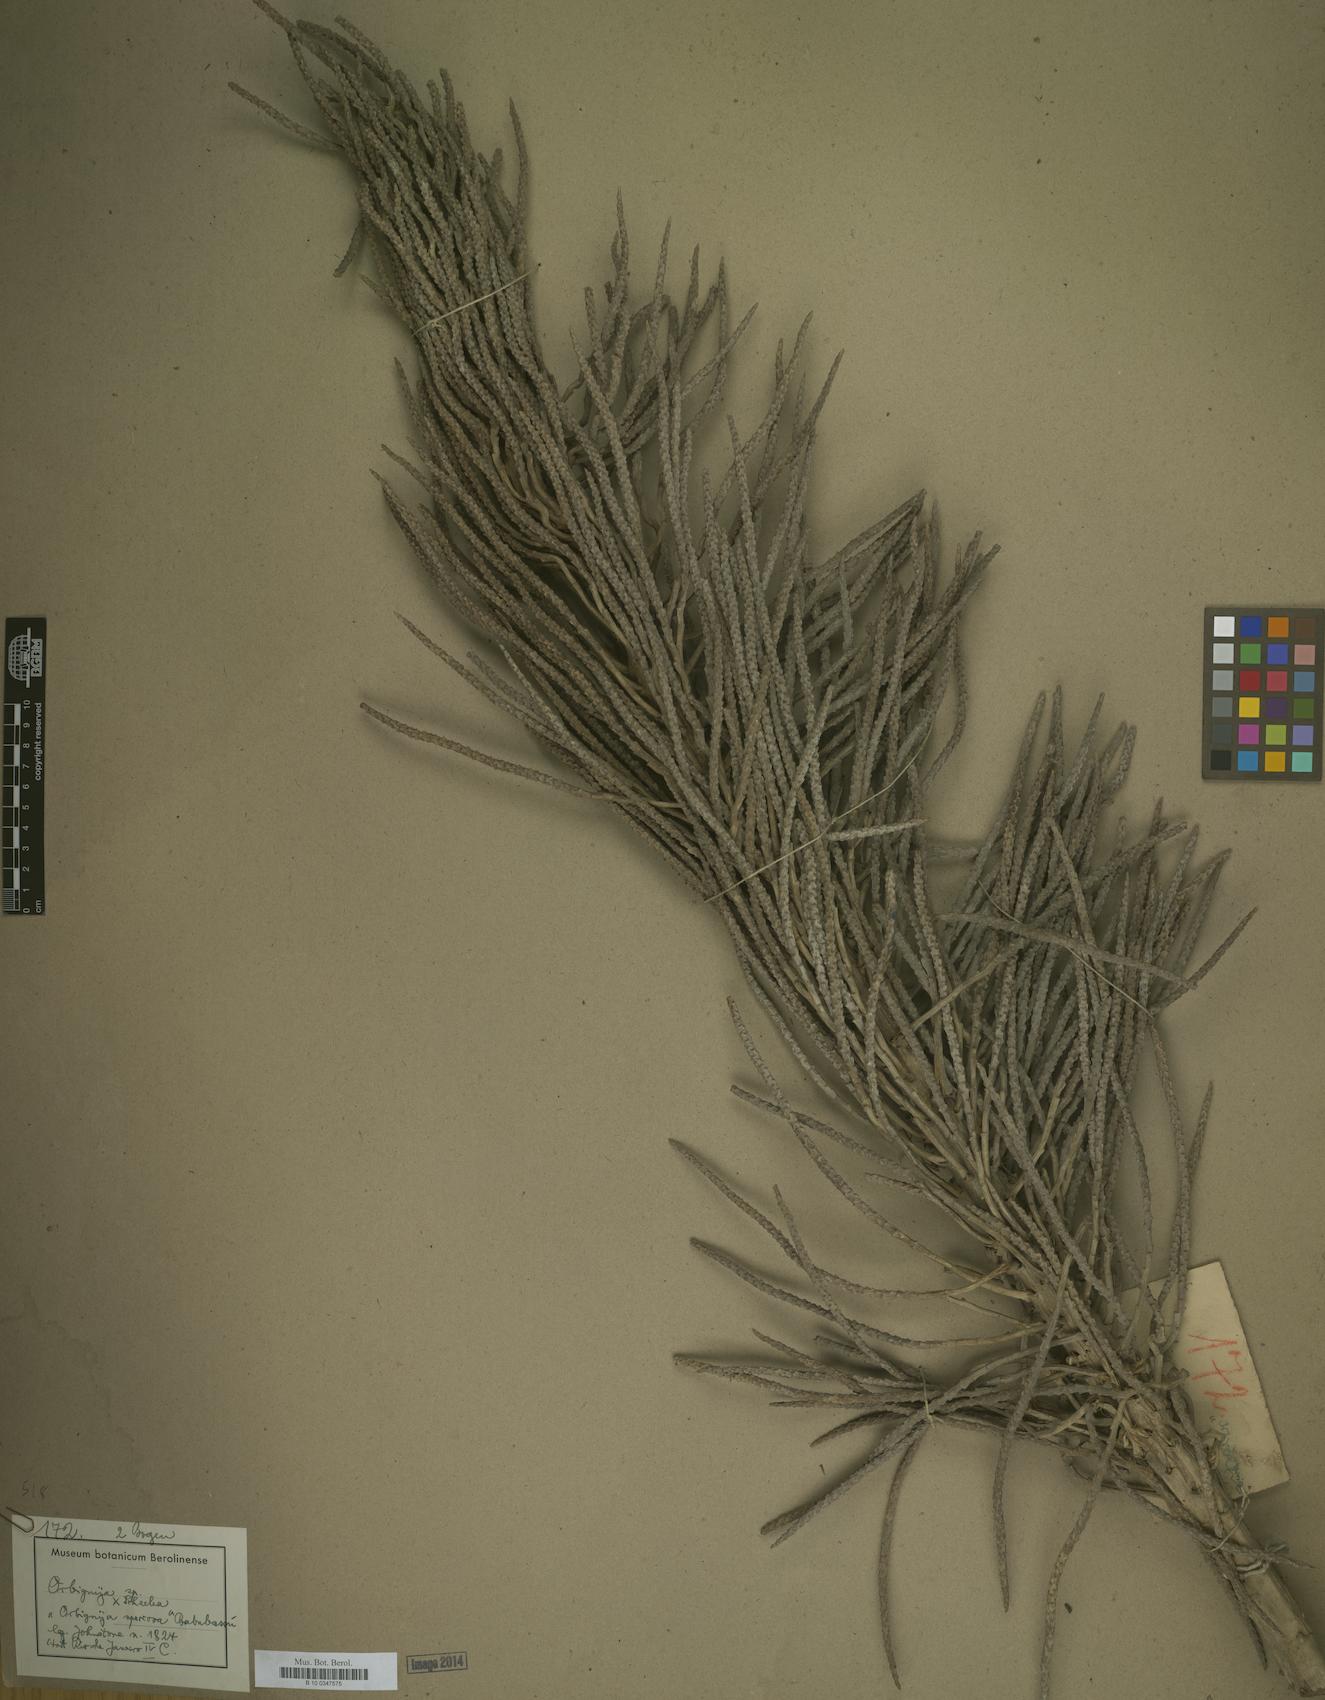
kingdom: Plantae
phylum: Tracheophyta
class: Magnoliopsida
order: Sapindales
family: Sapindaceae
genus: Orbignya
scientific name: Orbignya
